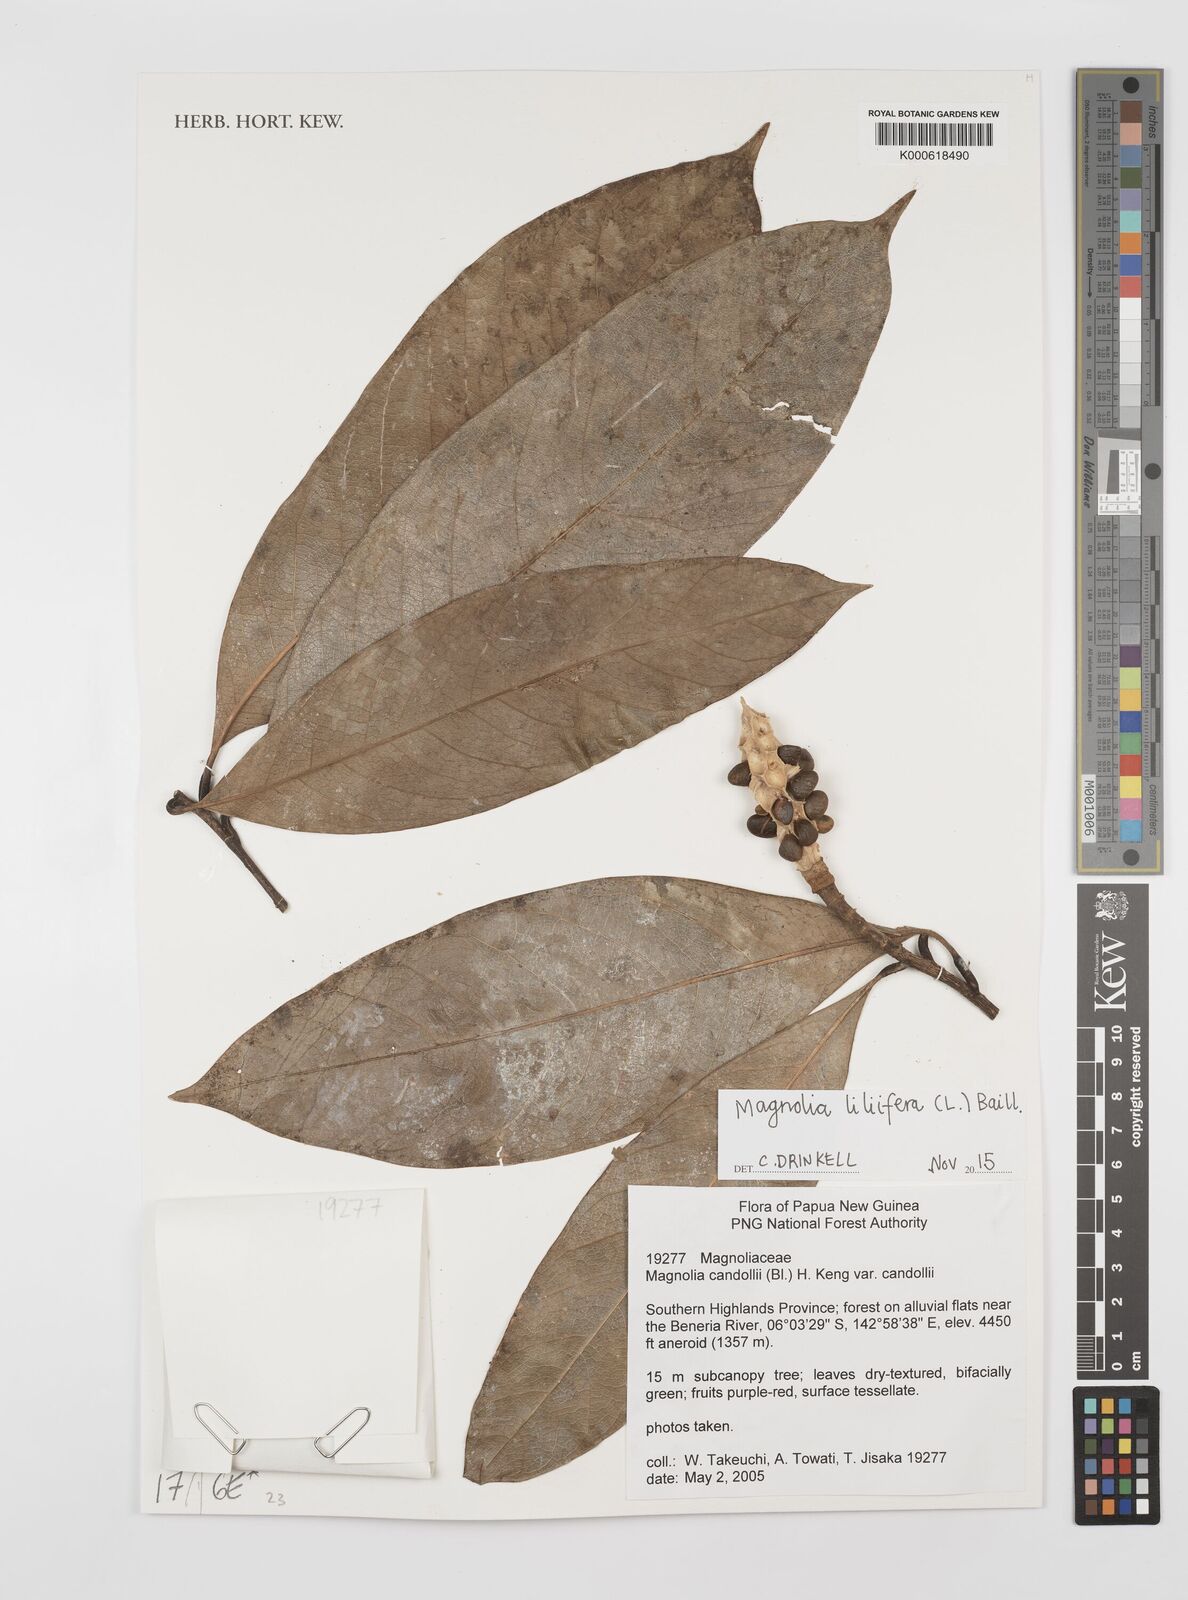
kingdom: Plantae
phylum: Tracheophyta
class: Magnoliopsida
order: Magnoliales
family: Magnoliaceae
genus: Magnolia
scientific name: Magnolia liliifera
